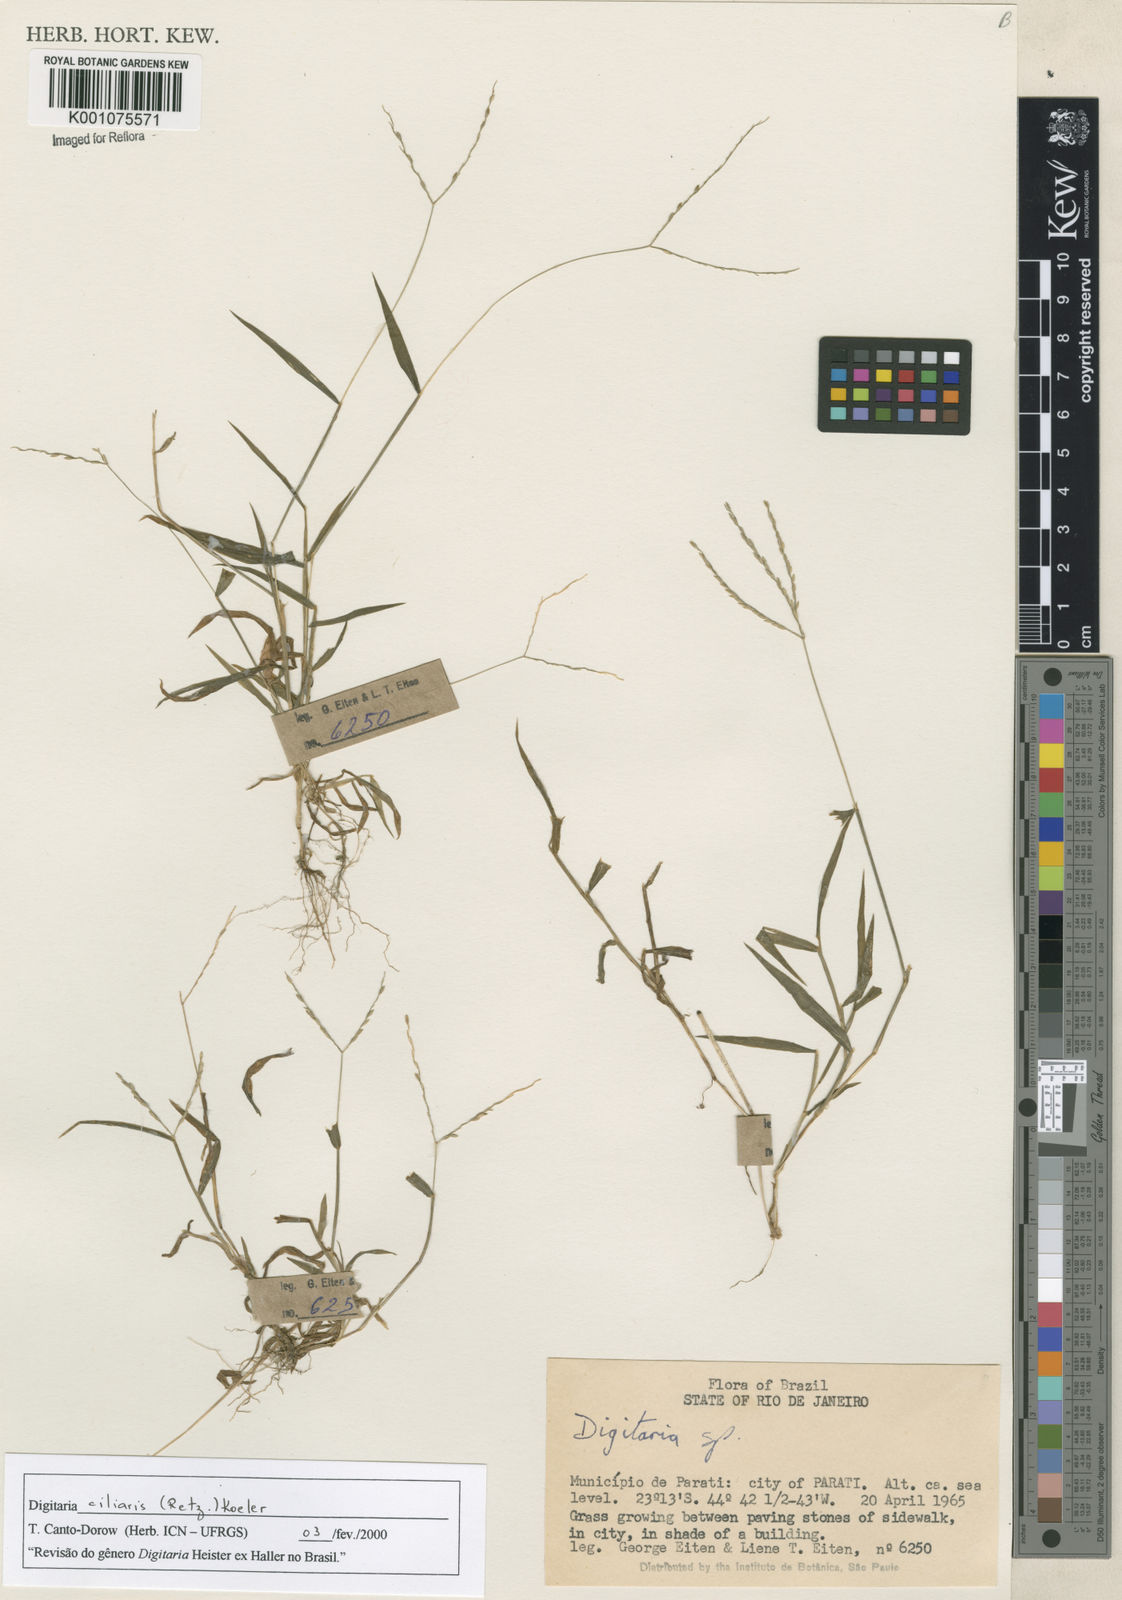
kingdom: Plantae
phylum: Tracheophyta
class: Liliopsida
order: Poales
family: Poaceae
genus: Digitaria
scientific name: Digitaria ciliaris
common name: Tropical finger-grass
